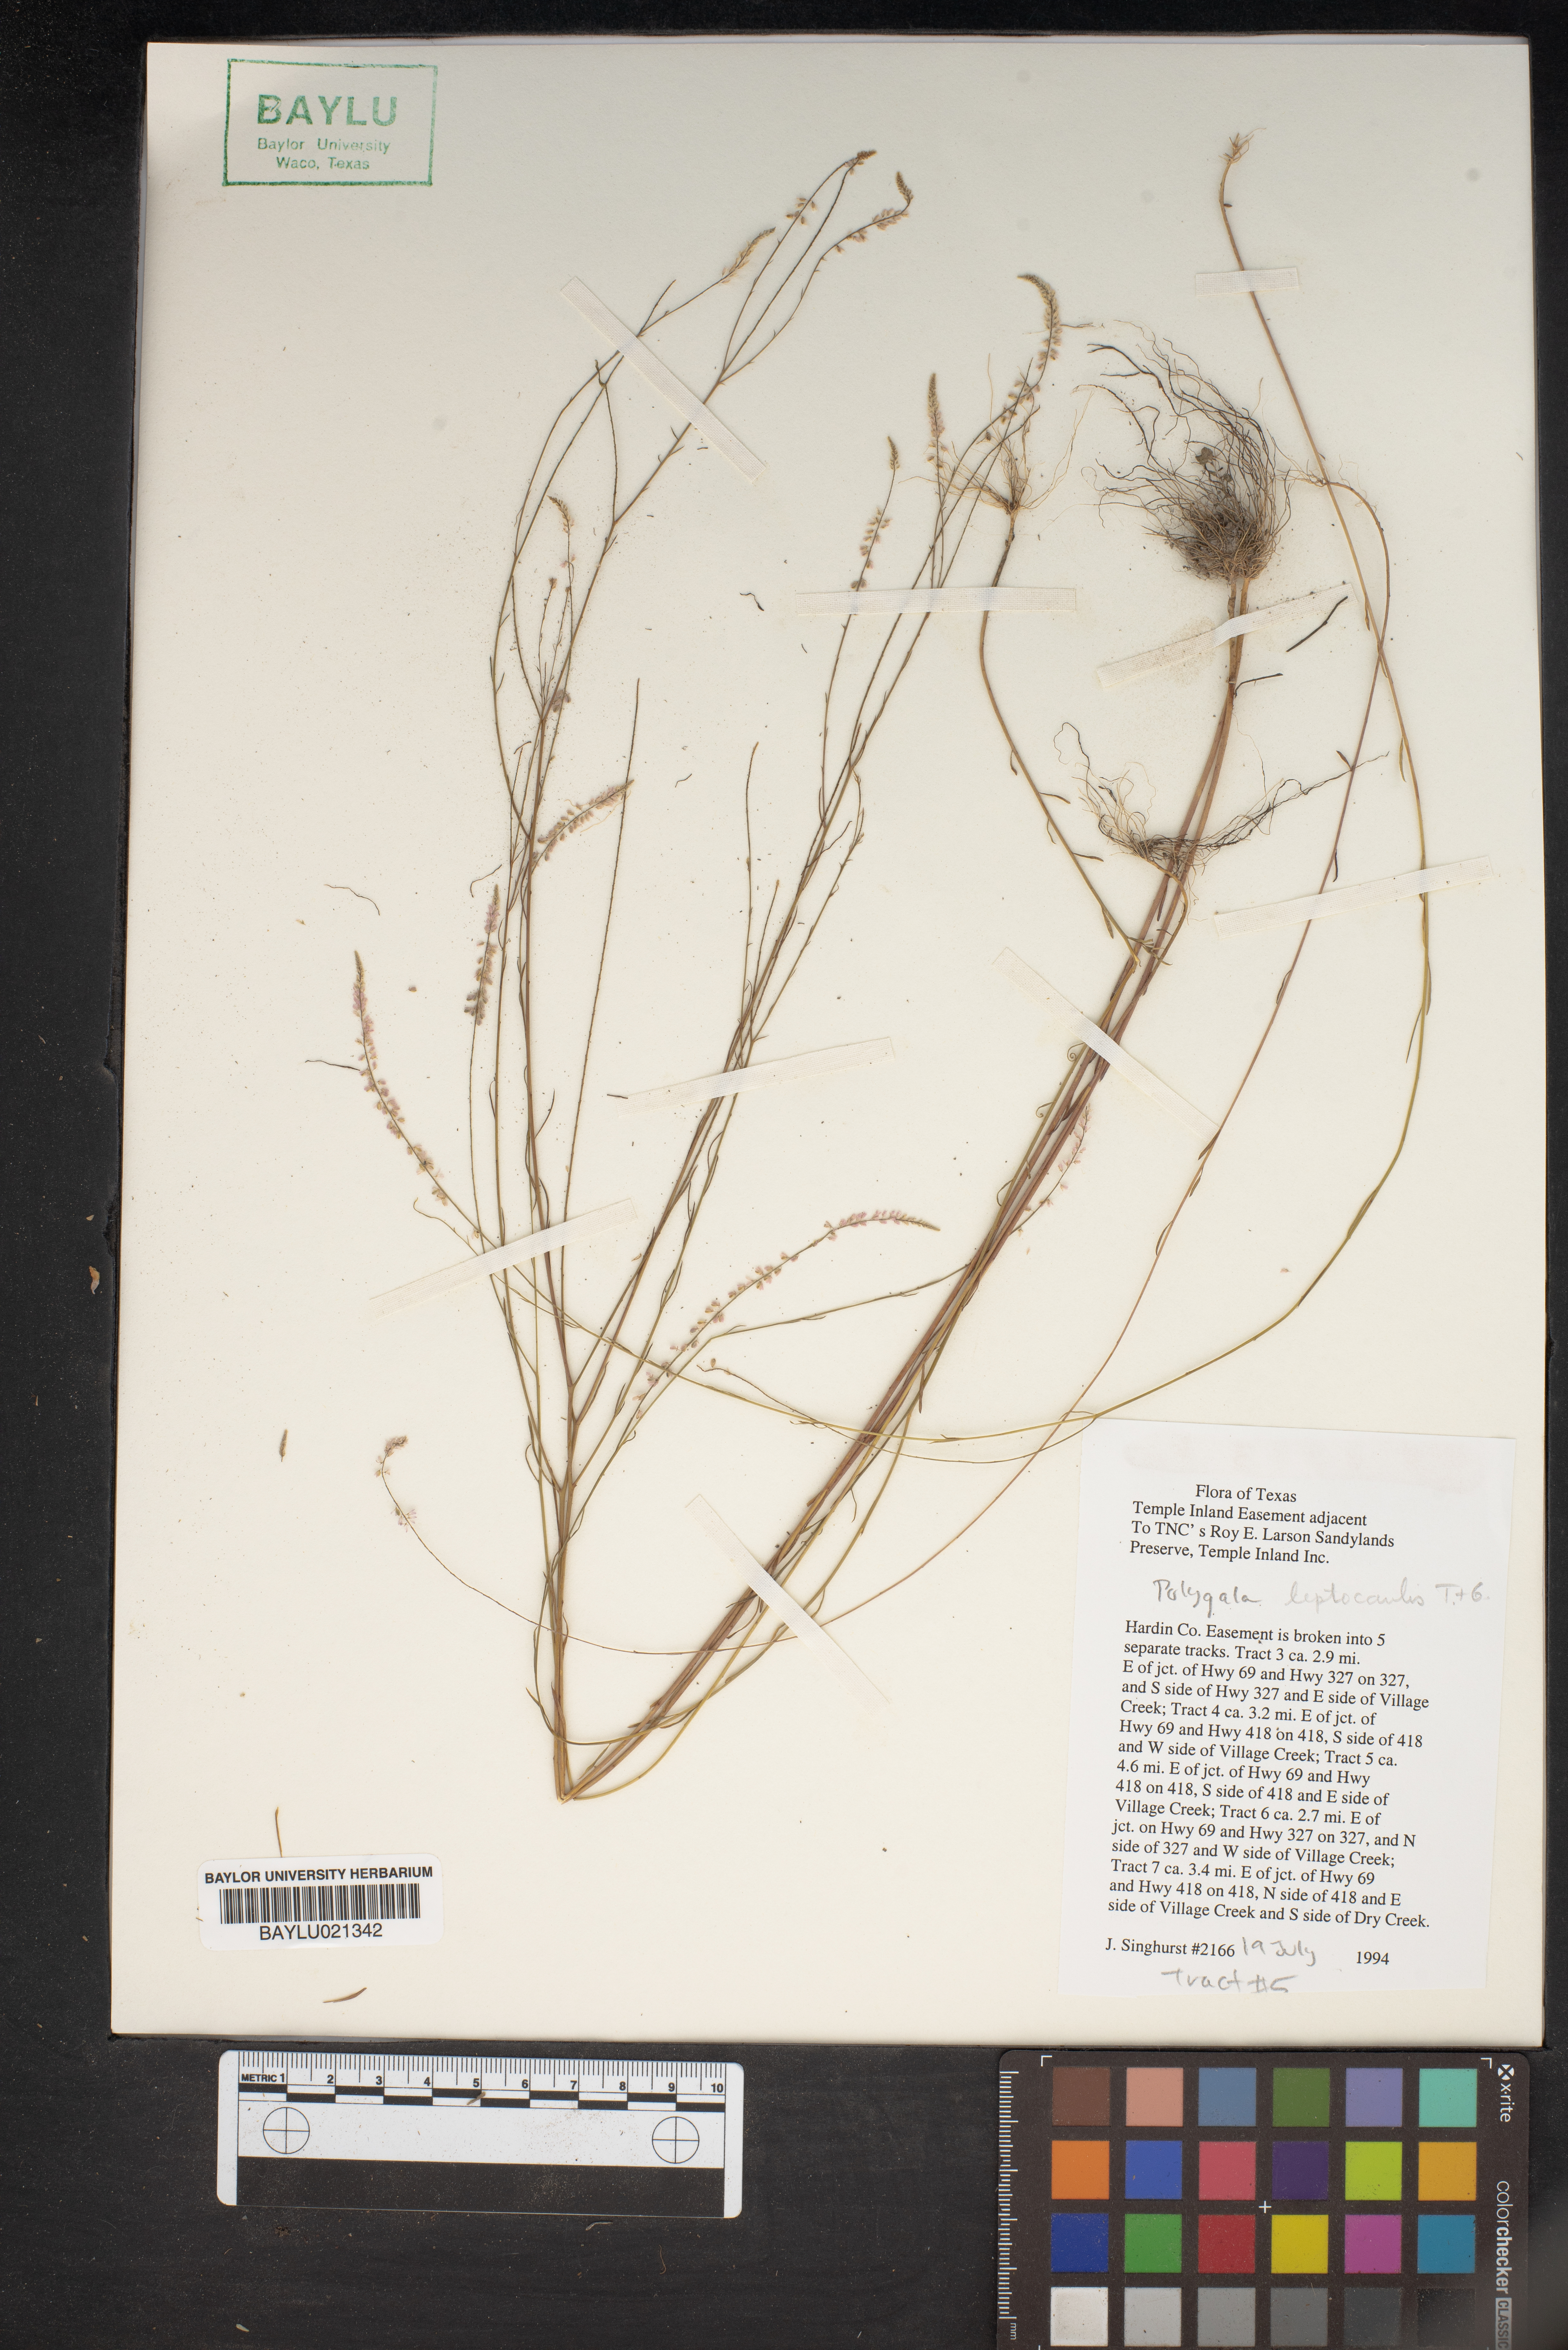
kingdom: Plantae
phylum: Tracheophyta
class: Magnoliopsida
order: Fabales
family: Polygalaceae
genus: Polygala
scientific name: Polygala tenella
